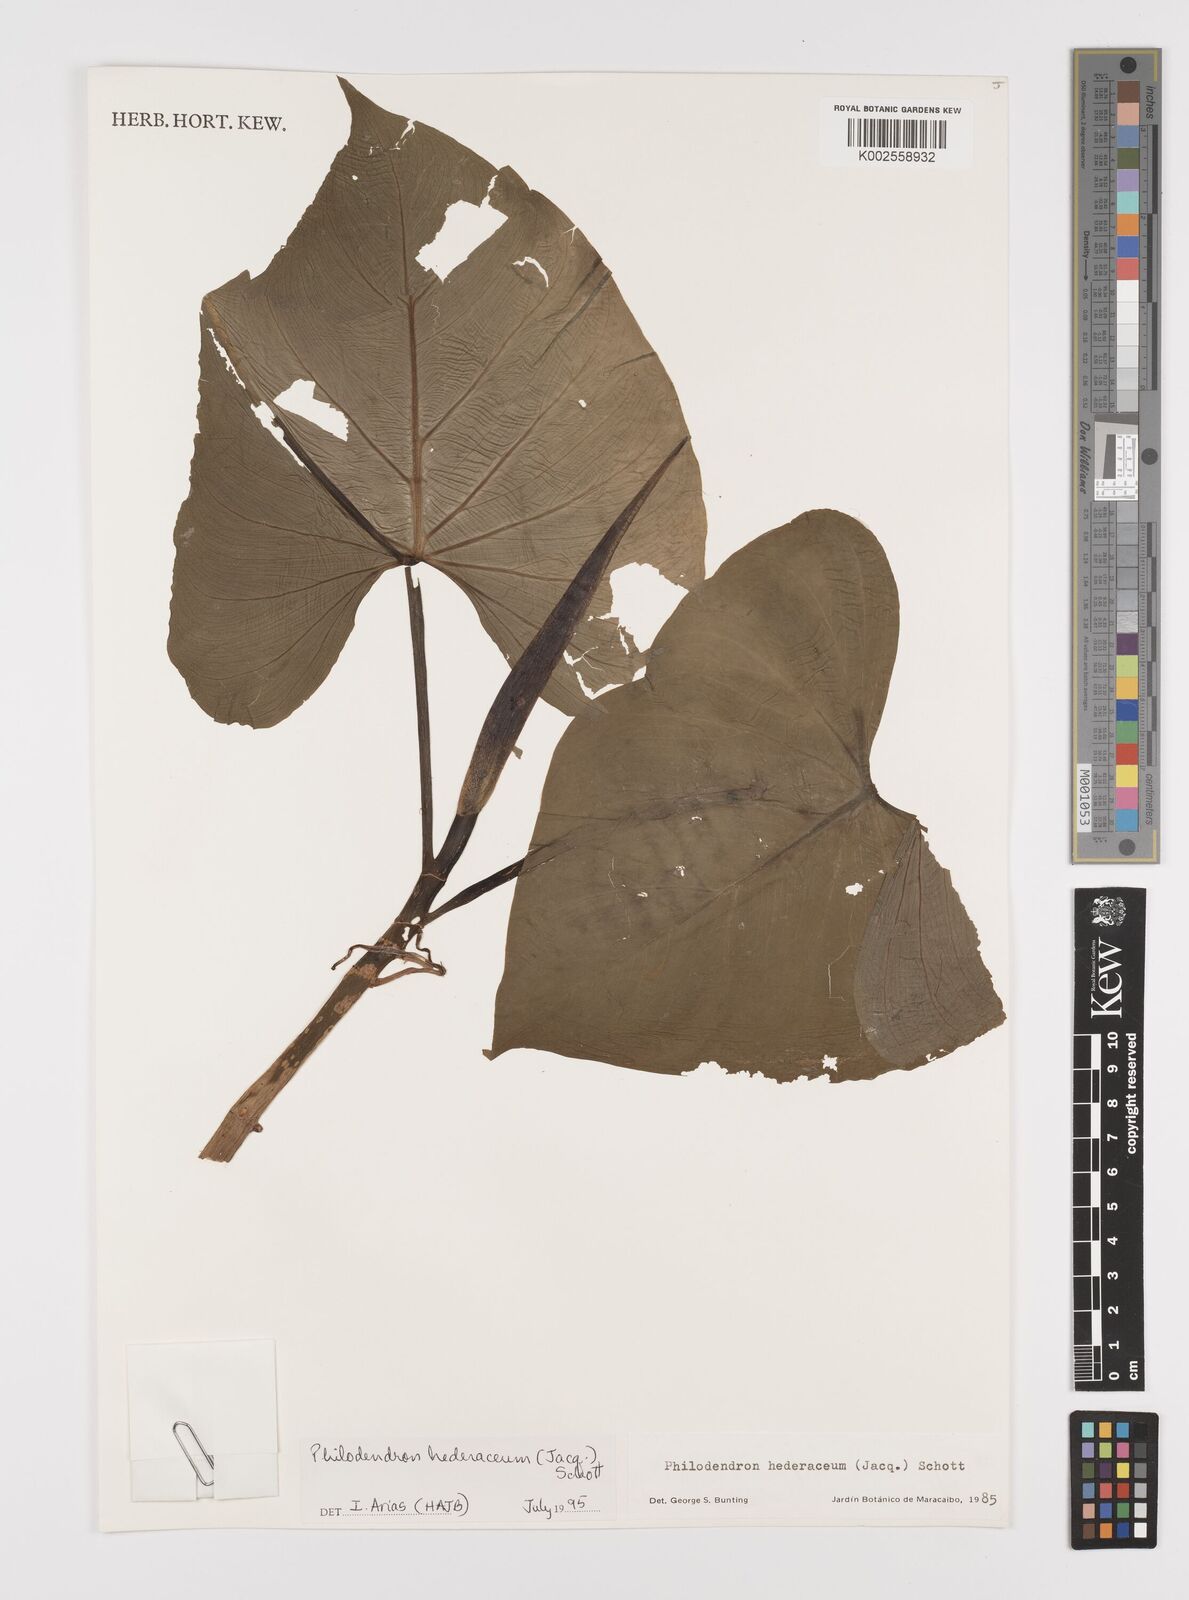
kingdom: Plantae
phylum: Tracheophyta
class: Liliopsida
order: Alismatales
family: Araceae
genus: Philodendron
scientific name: Philodendron hederaceum
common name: Vilevine
